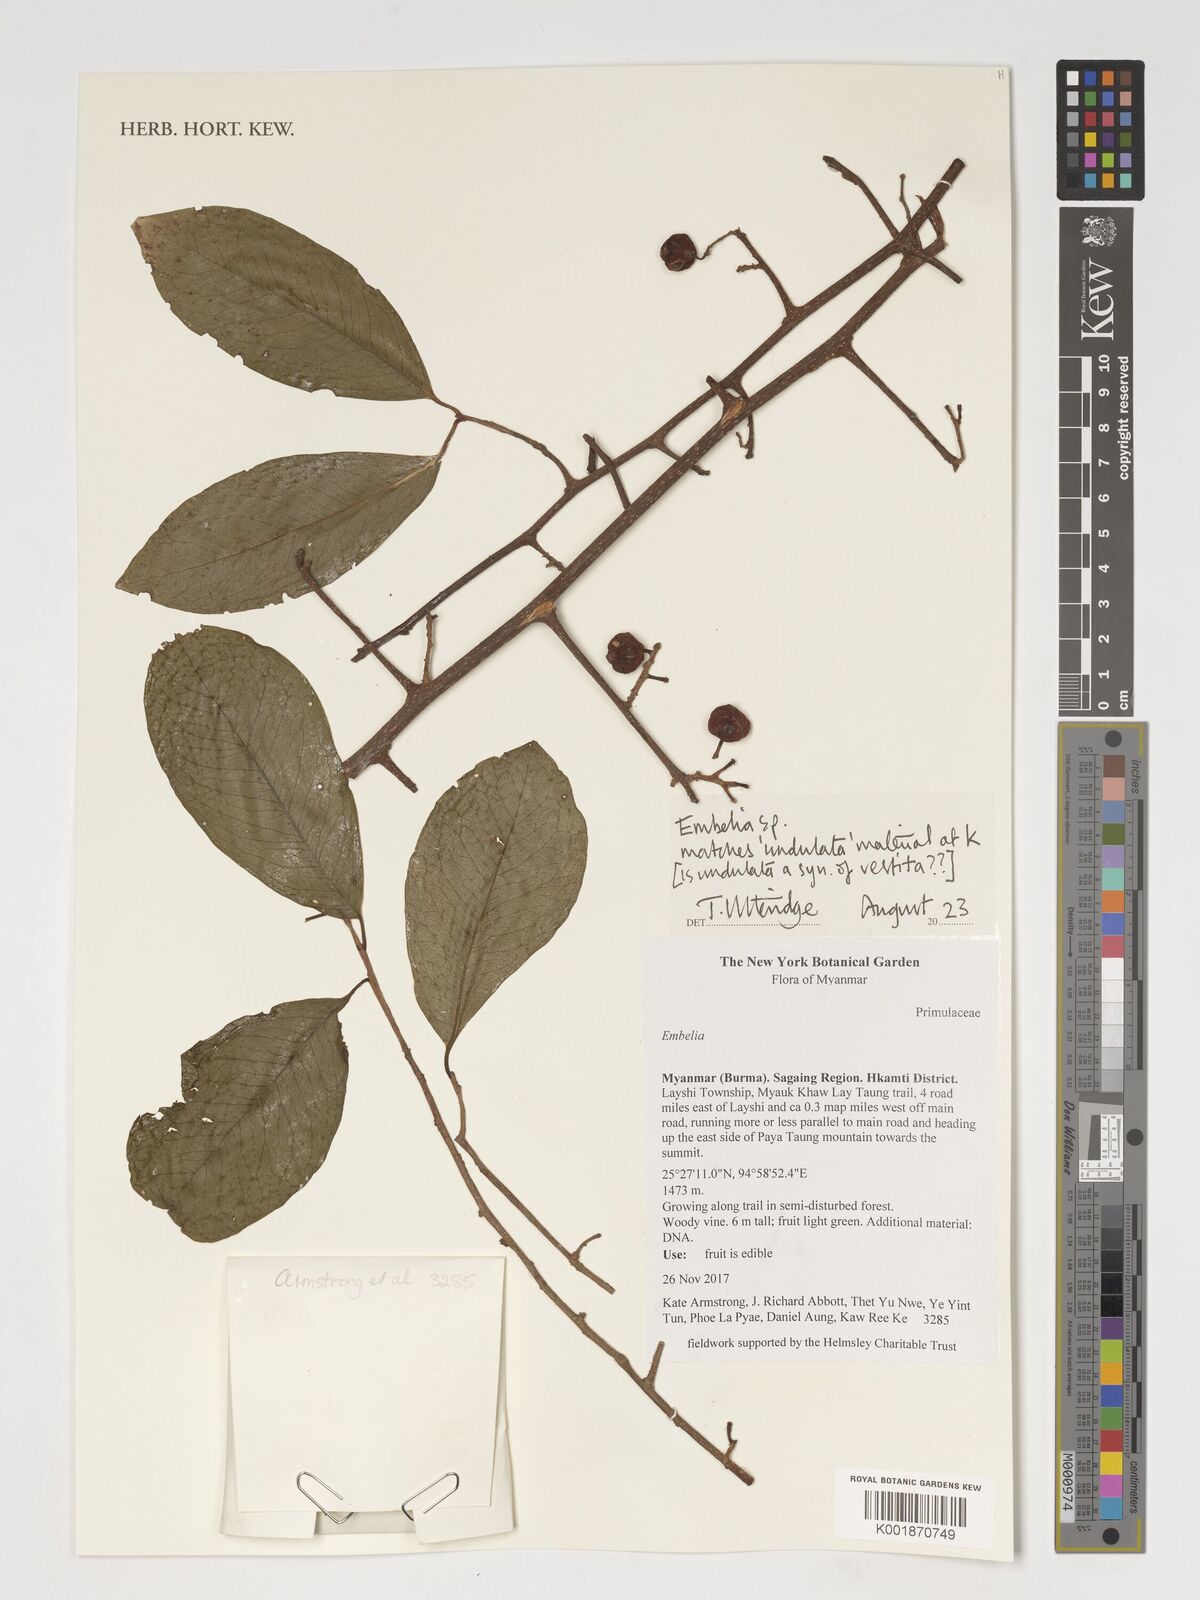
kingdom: Plantae
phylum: Tracheophyta
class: Magnoliopsida
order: Ericales
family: Primulaceae
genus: Embelia
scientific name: Embelia
